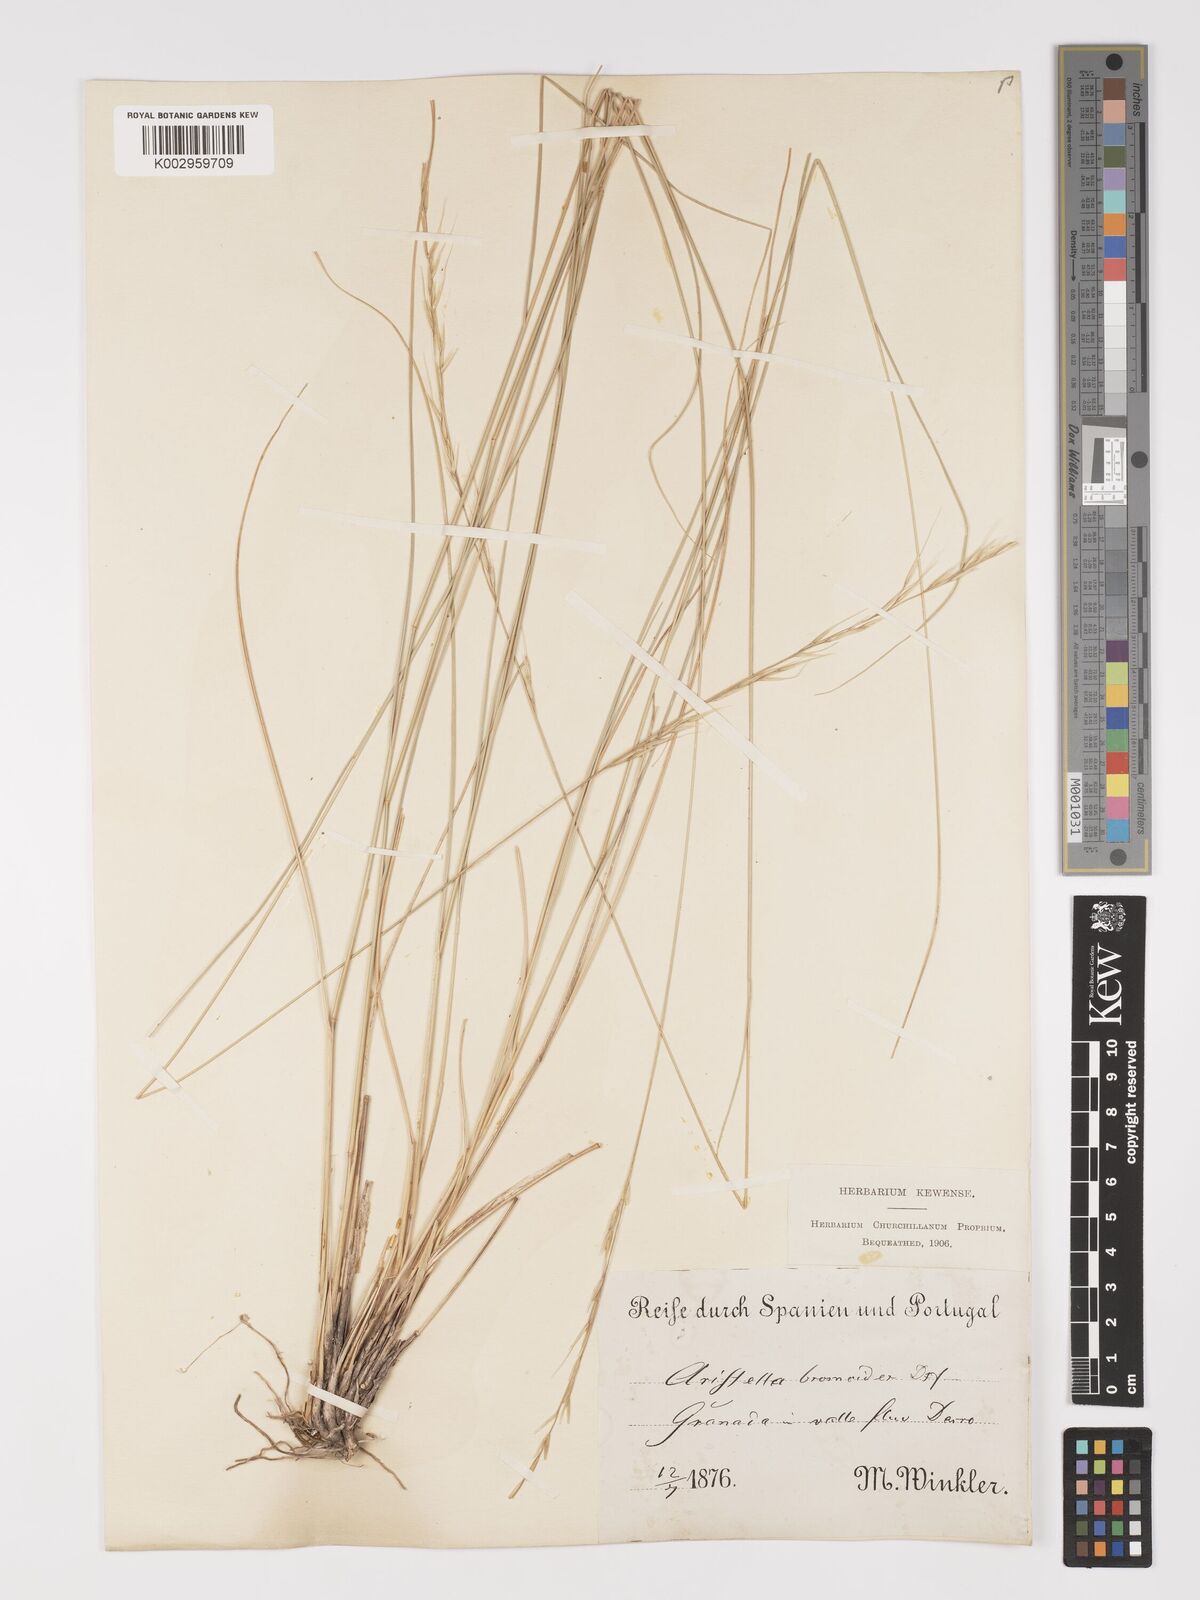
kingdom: Plantae
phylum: Tracheophyta
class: Liliopsida
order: Poales
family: Poaceae
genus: Achnatherum
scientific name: Achnatherum bromoides
